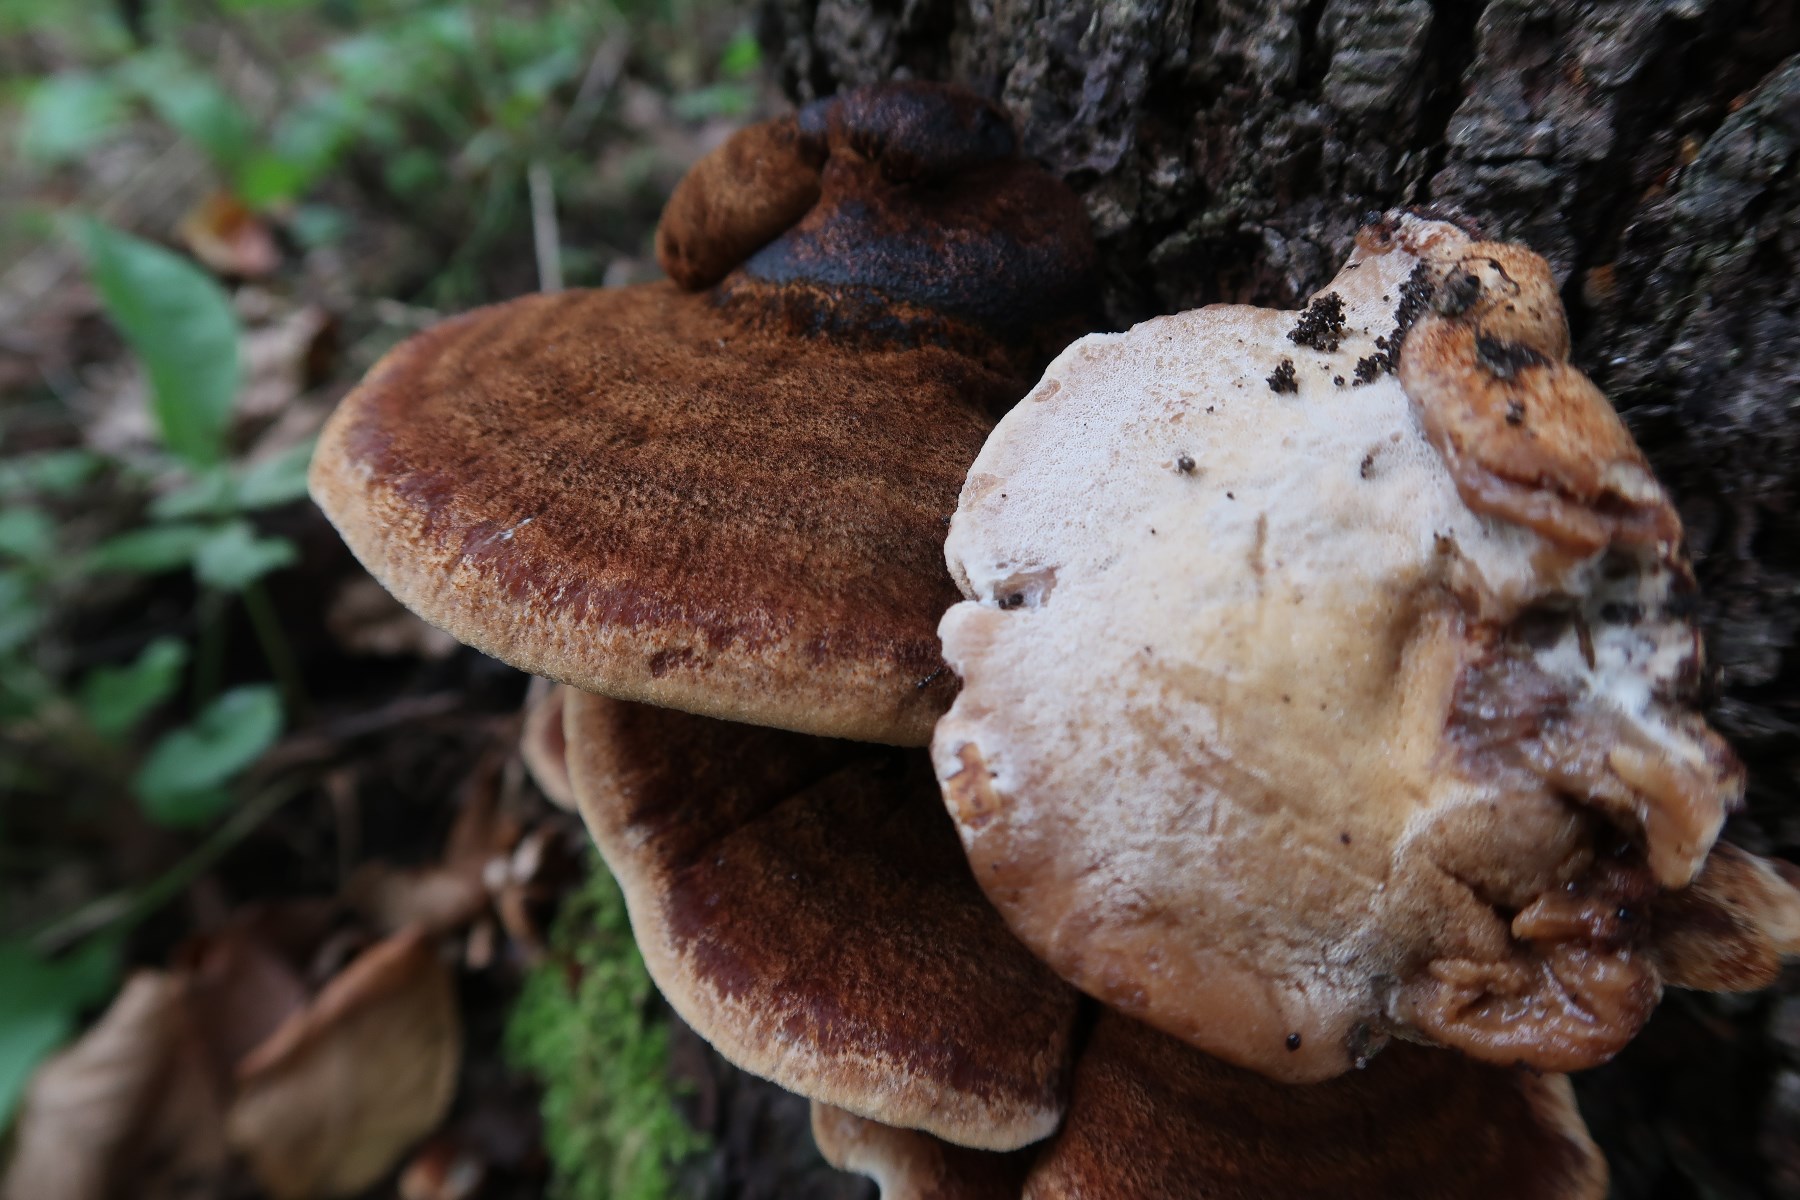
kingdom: Fungi
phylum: Basidiomycota
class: Agaricomycetes
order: Polyporales
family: Ischnodermataceae
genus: Ischnoderma
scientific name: Ischnoderma benzoinum
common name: gran-tjæreporesvamp
